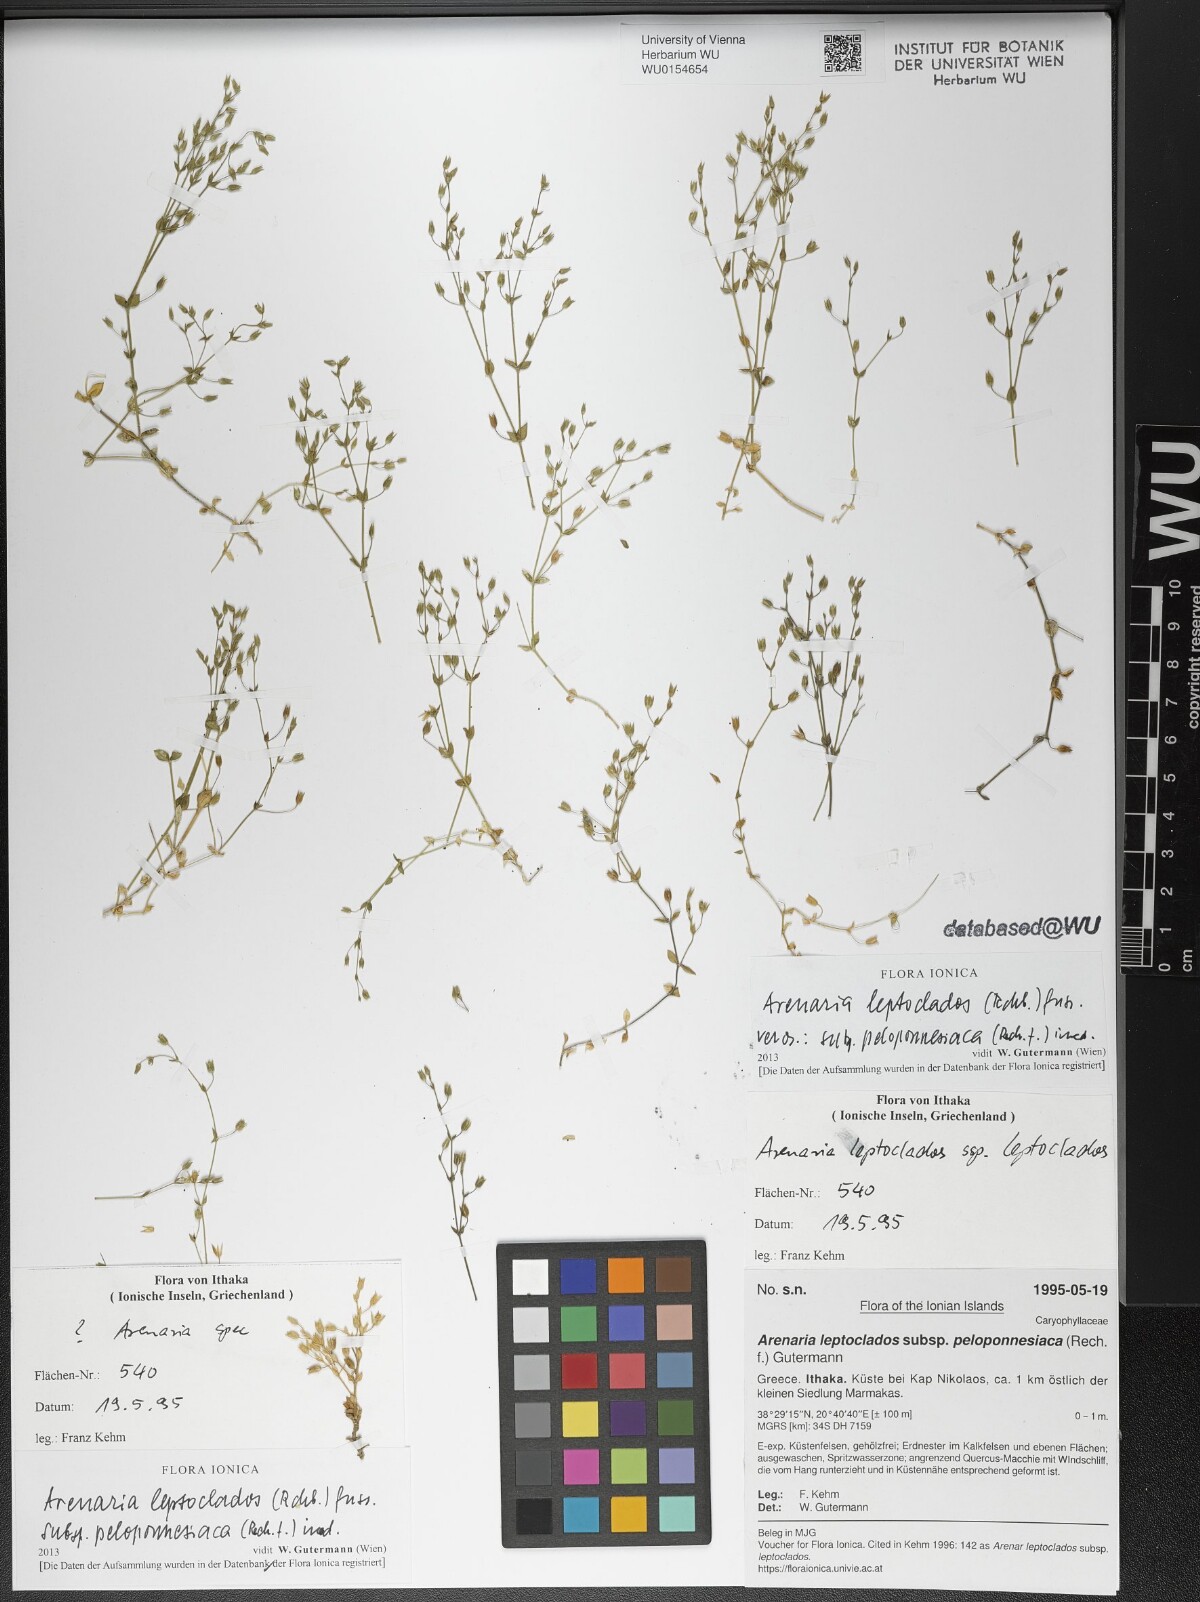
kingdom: Plantae
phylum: Tracheophyta
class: Magnoliopsida
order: Caryophyllales
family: Caryophyllaceae
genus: Arenaria
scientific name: Arenaria leptoclados
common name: Thyme-leaved sandwort
